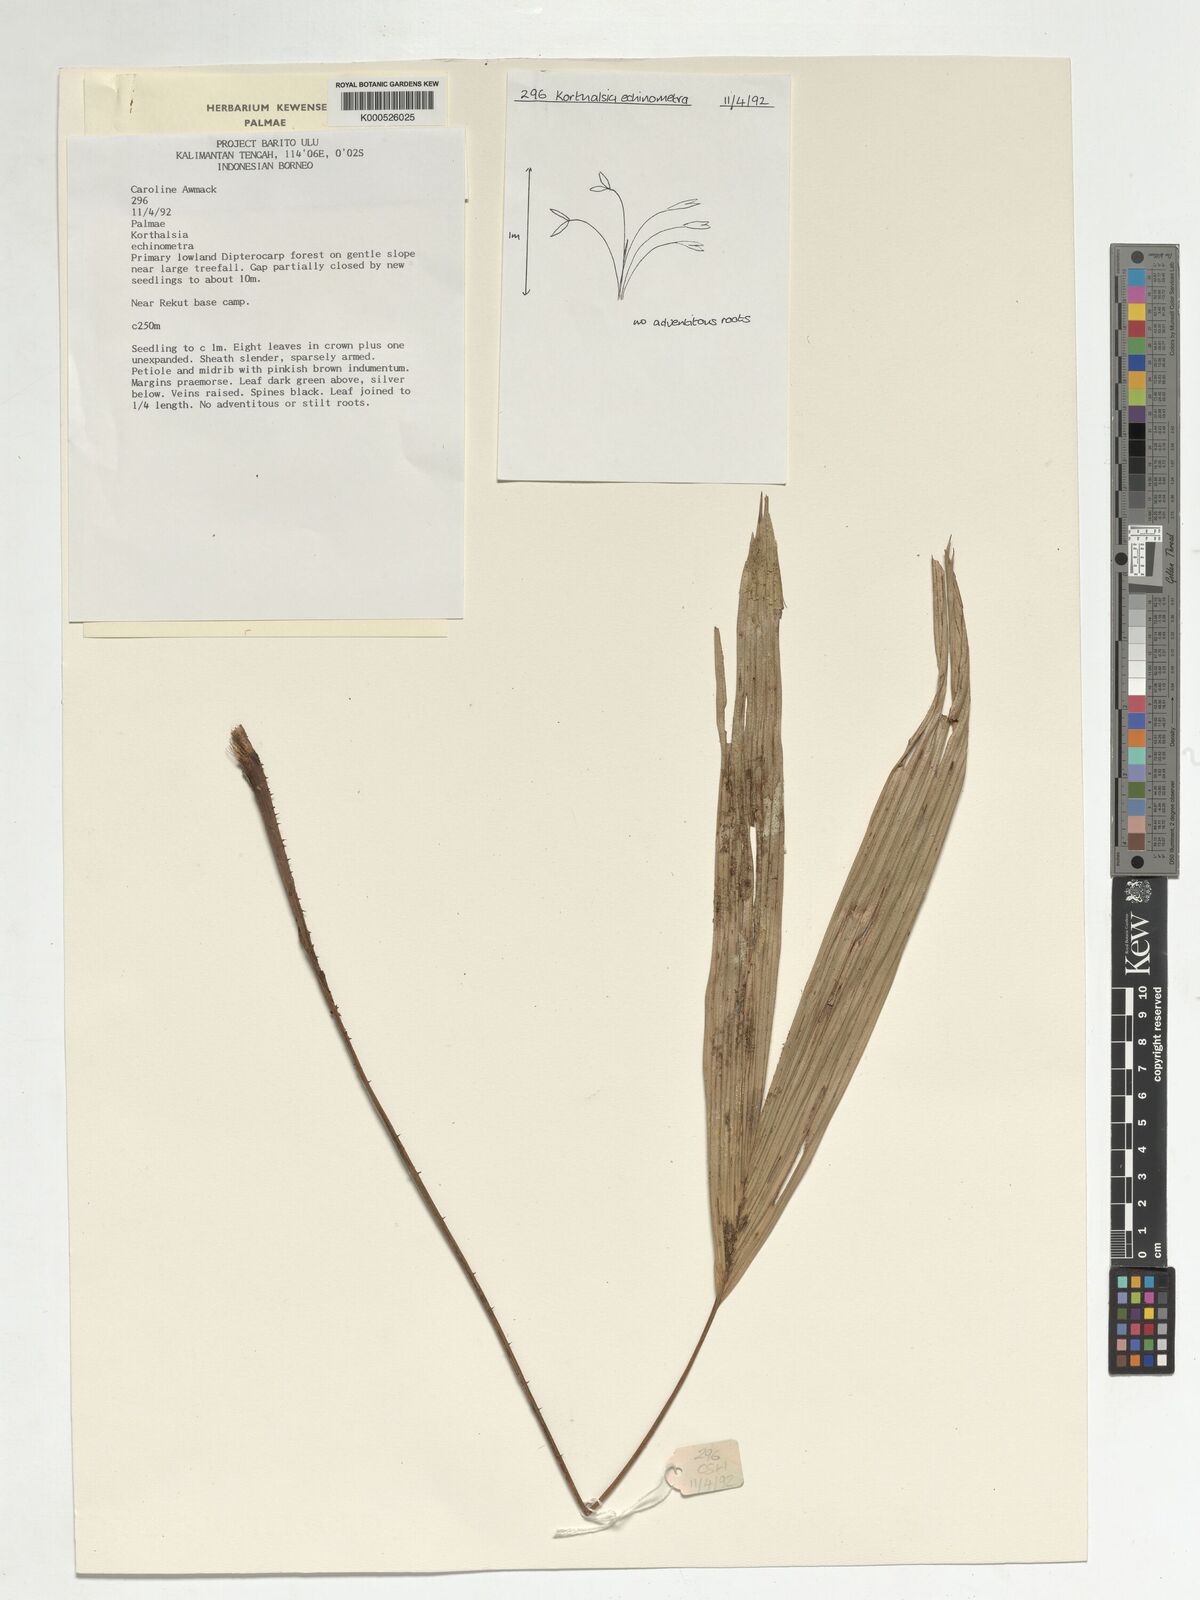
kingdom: Plantae
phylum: Tracheophyta
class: Liliopsida
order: Arecales
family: Arecaceae
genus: Korthalsia
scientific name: Korthalsia echinometra
